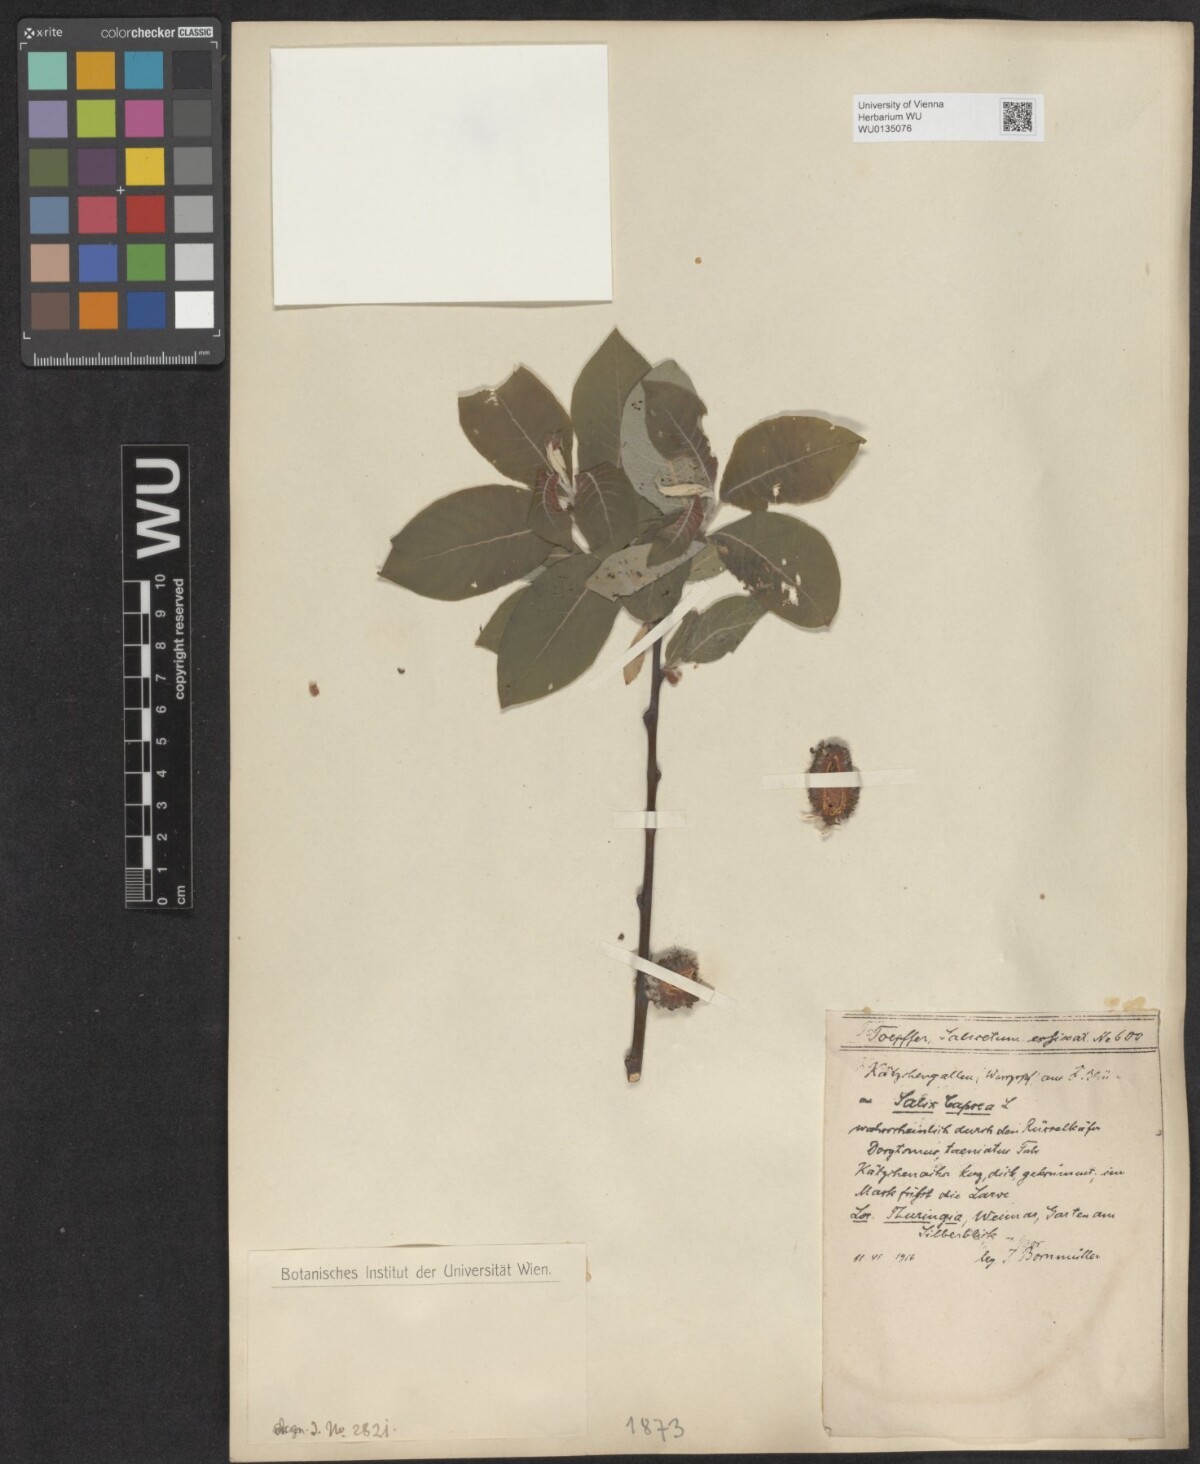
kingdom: Plantae
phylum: Tracheophyta
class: Magnoliopsida
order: Malpighiales
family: Salicaceae
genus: Salix
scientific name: Salix caprea
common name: Goat willow
